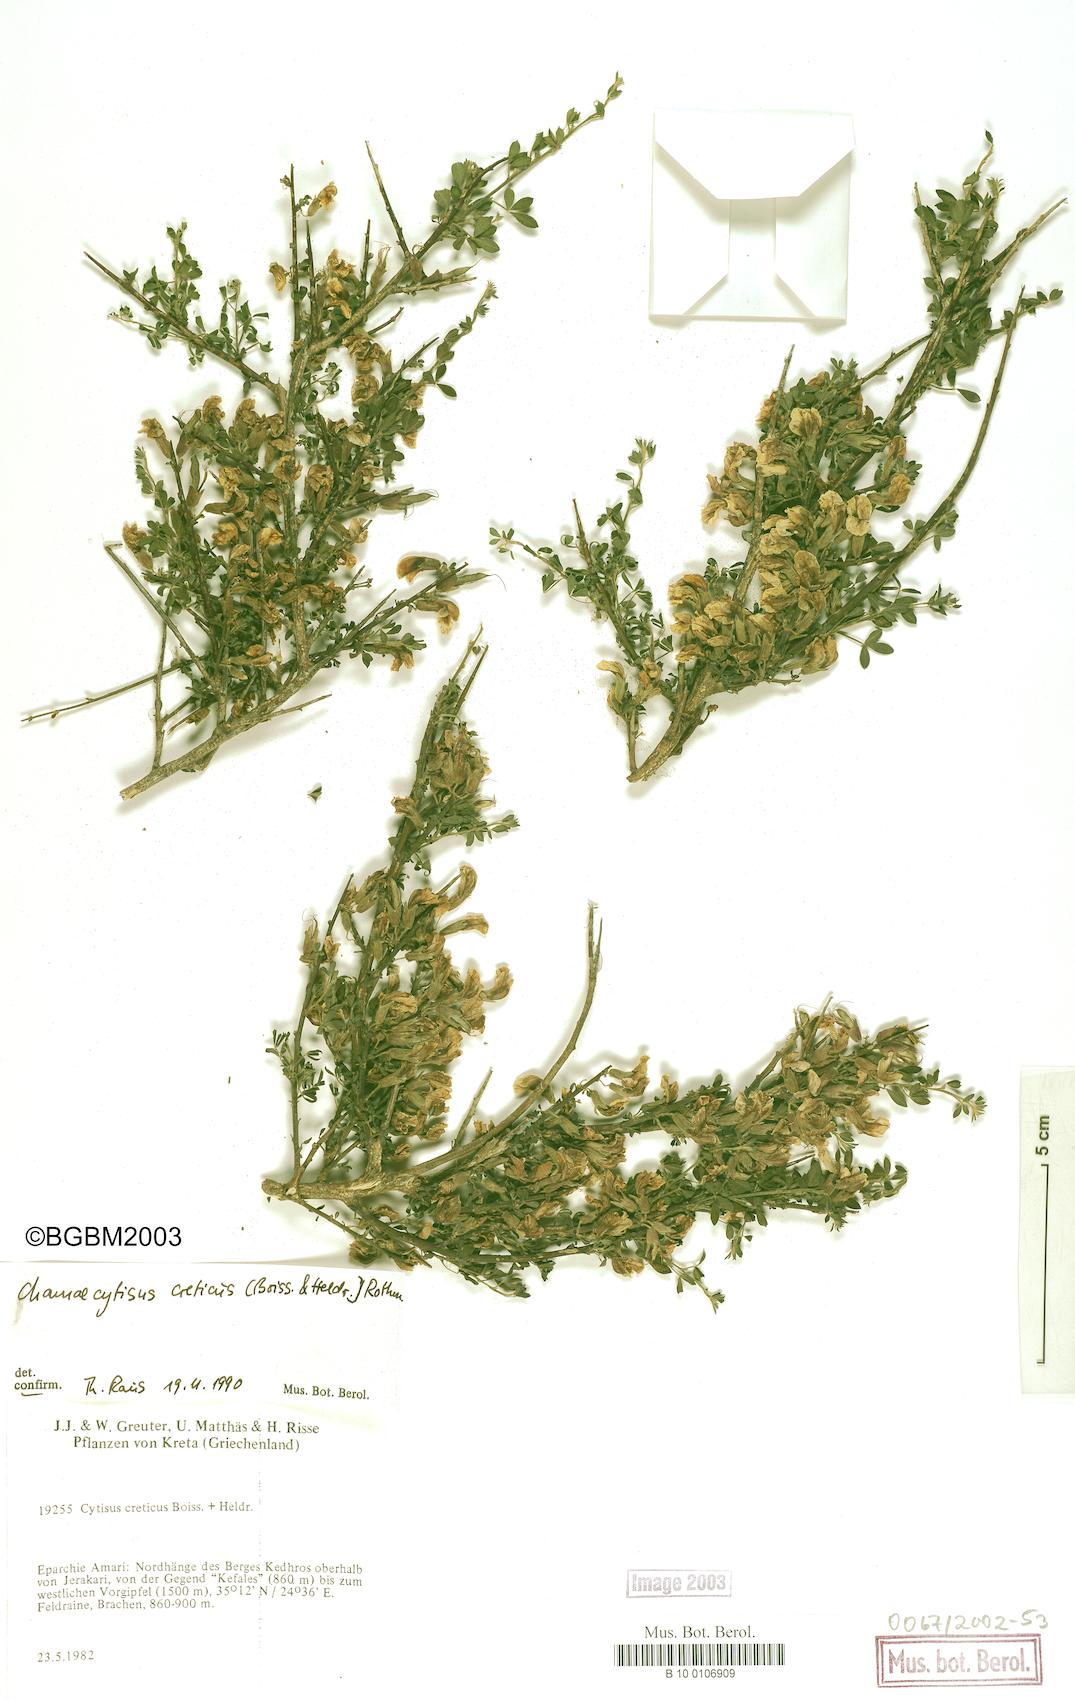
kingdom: Plantae
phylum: Tracheophyta
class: Magnoliopsida
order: Fabales
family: Fabaceae
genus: Chamaecytisus
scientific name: Chamaecytisus spinescens
